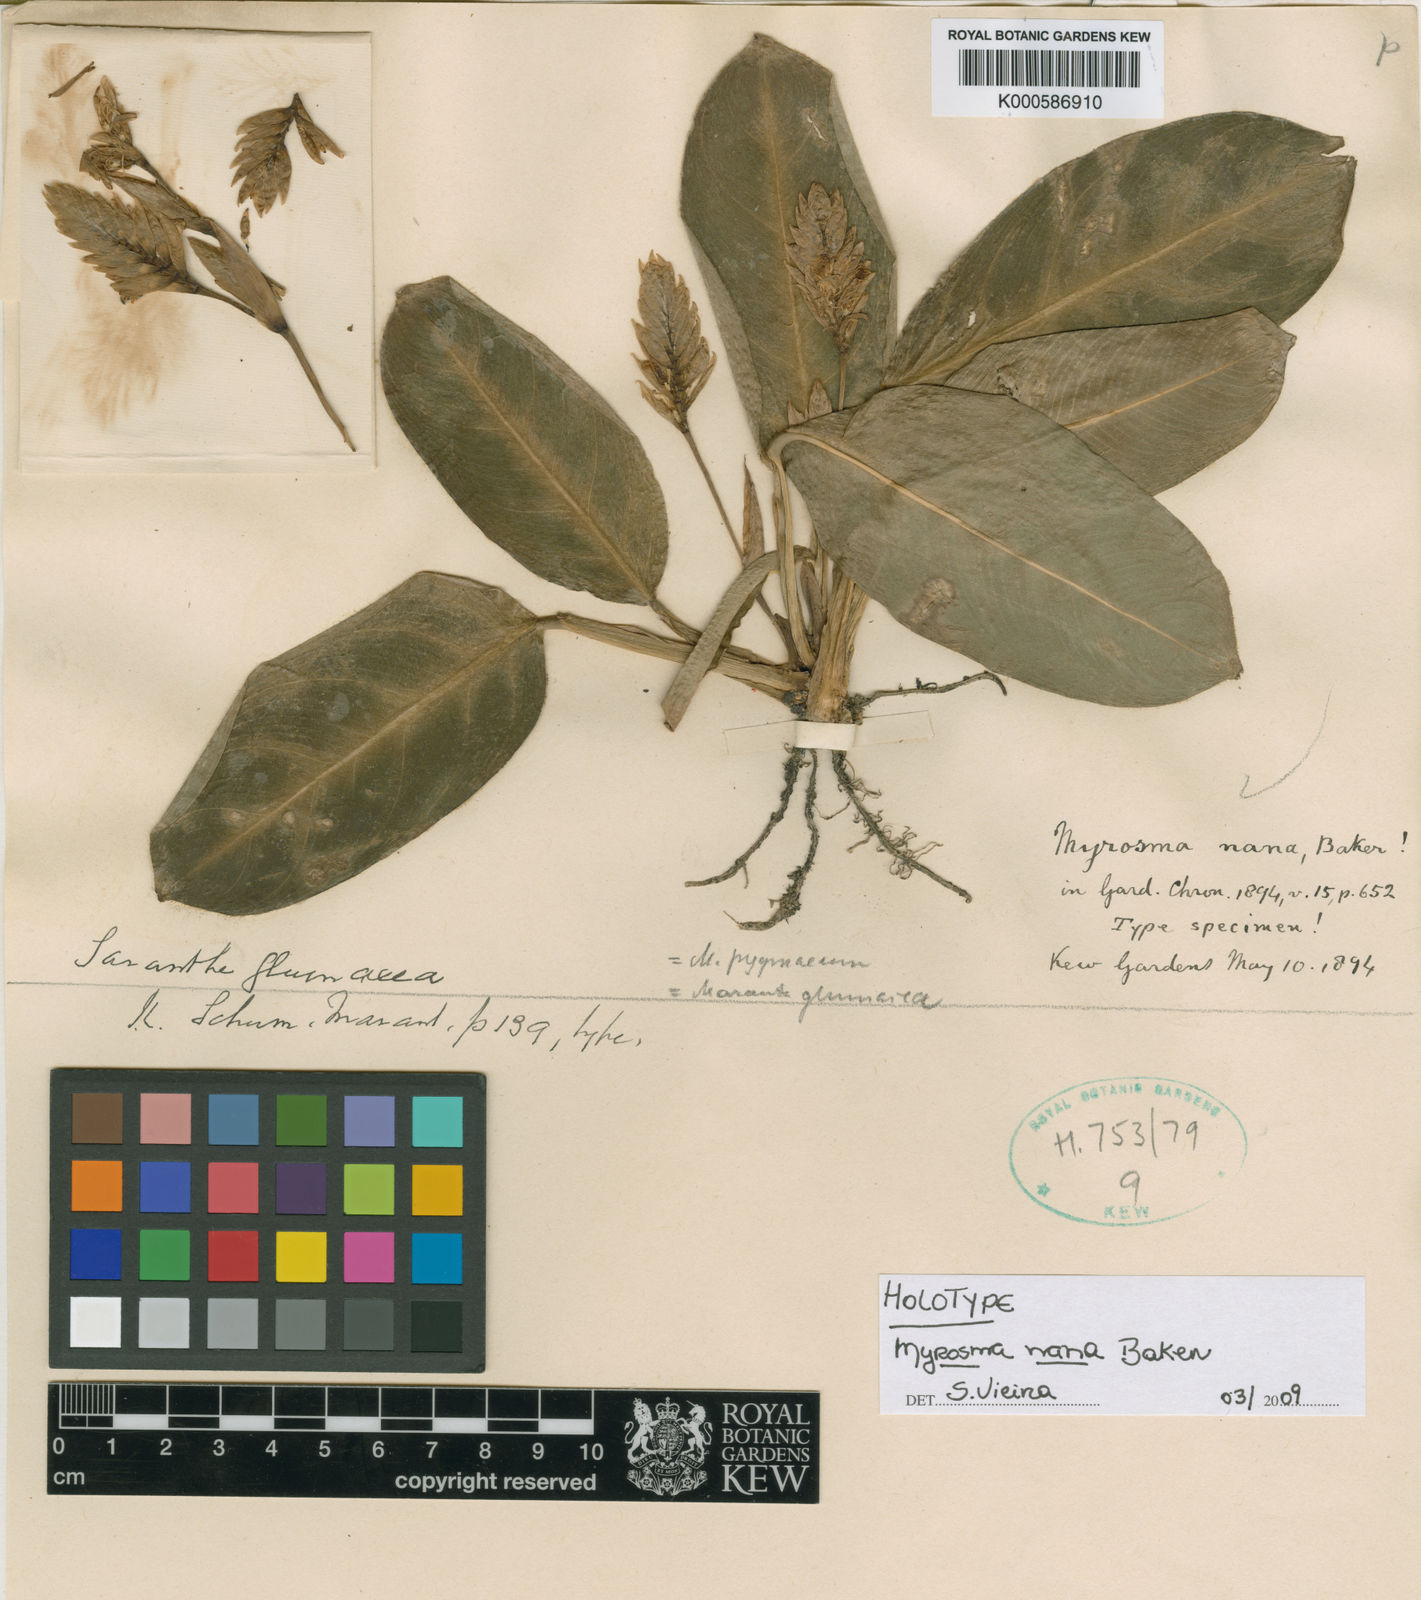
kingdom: Plantae
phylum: Tracheophyta
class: Liliopsida
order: Zingiberales
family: Marantaceae
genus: Saranthe
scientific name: Saranthe glumacea
